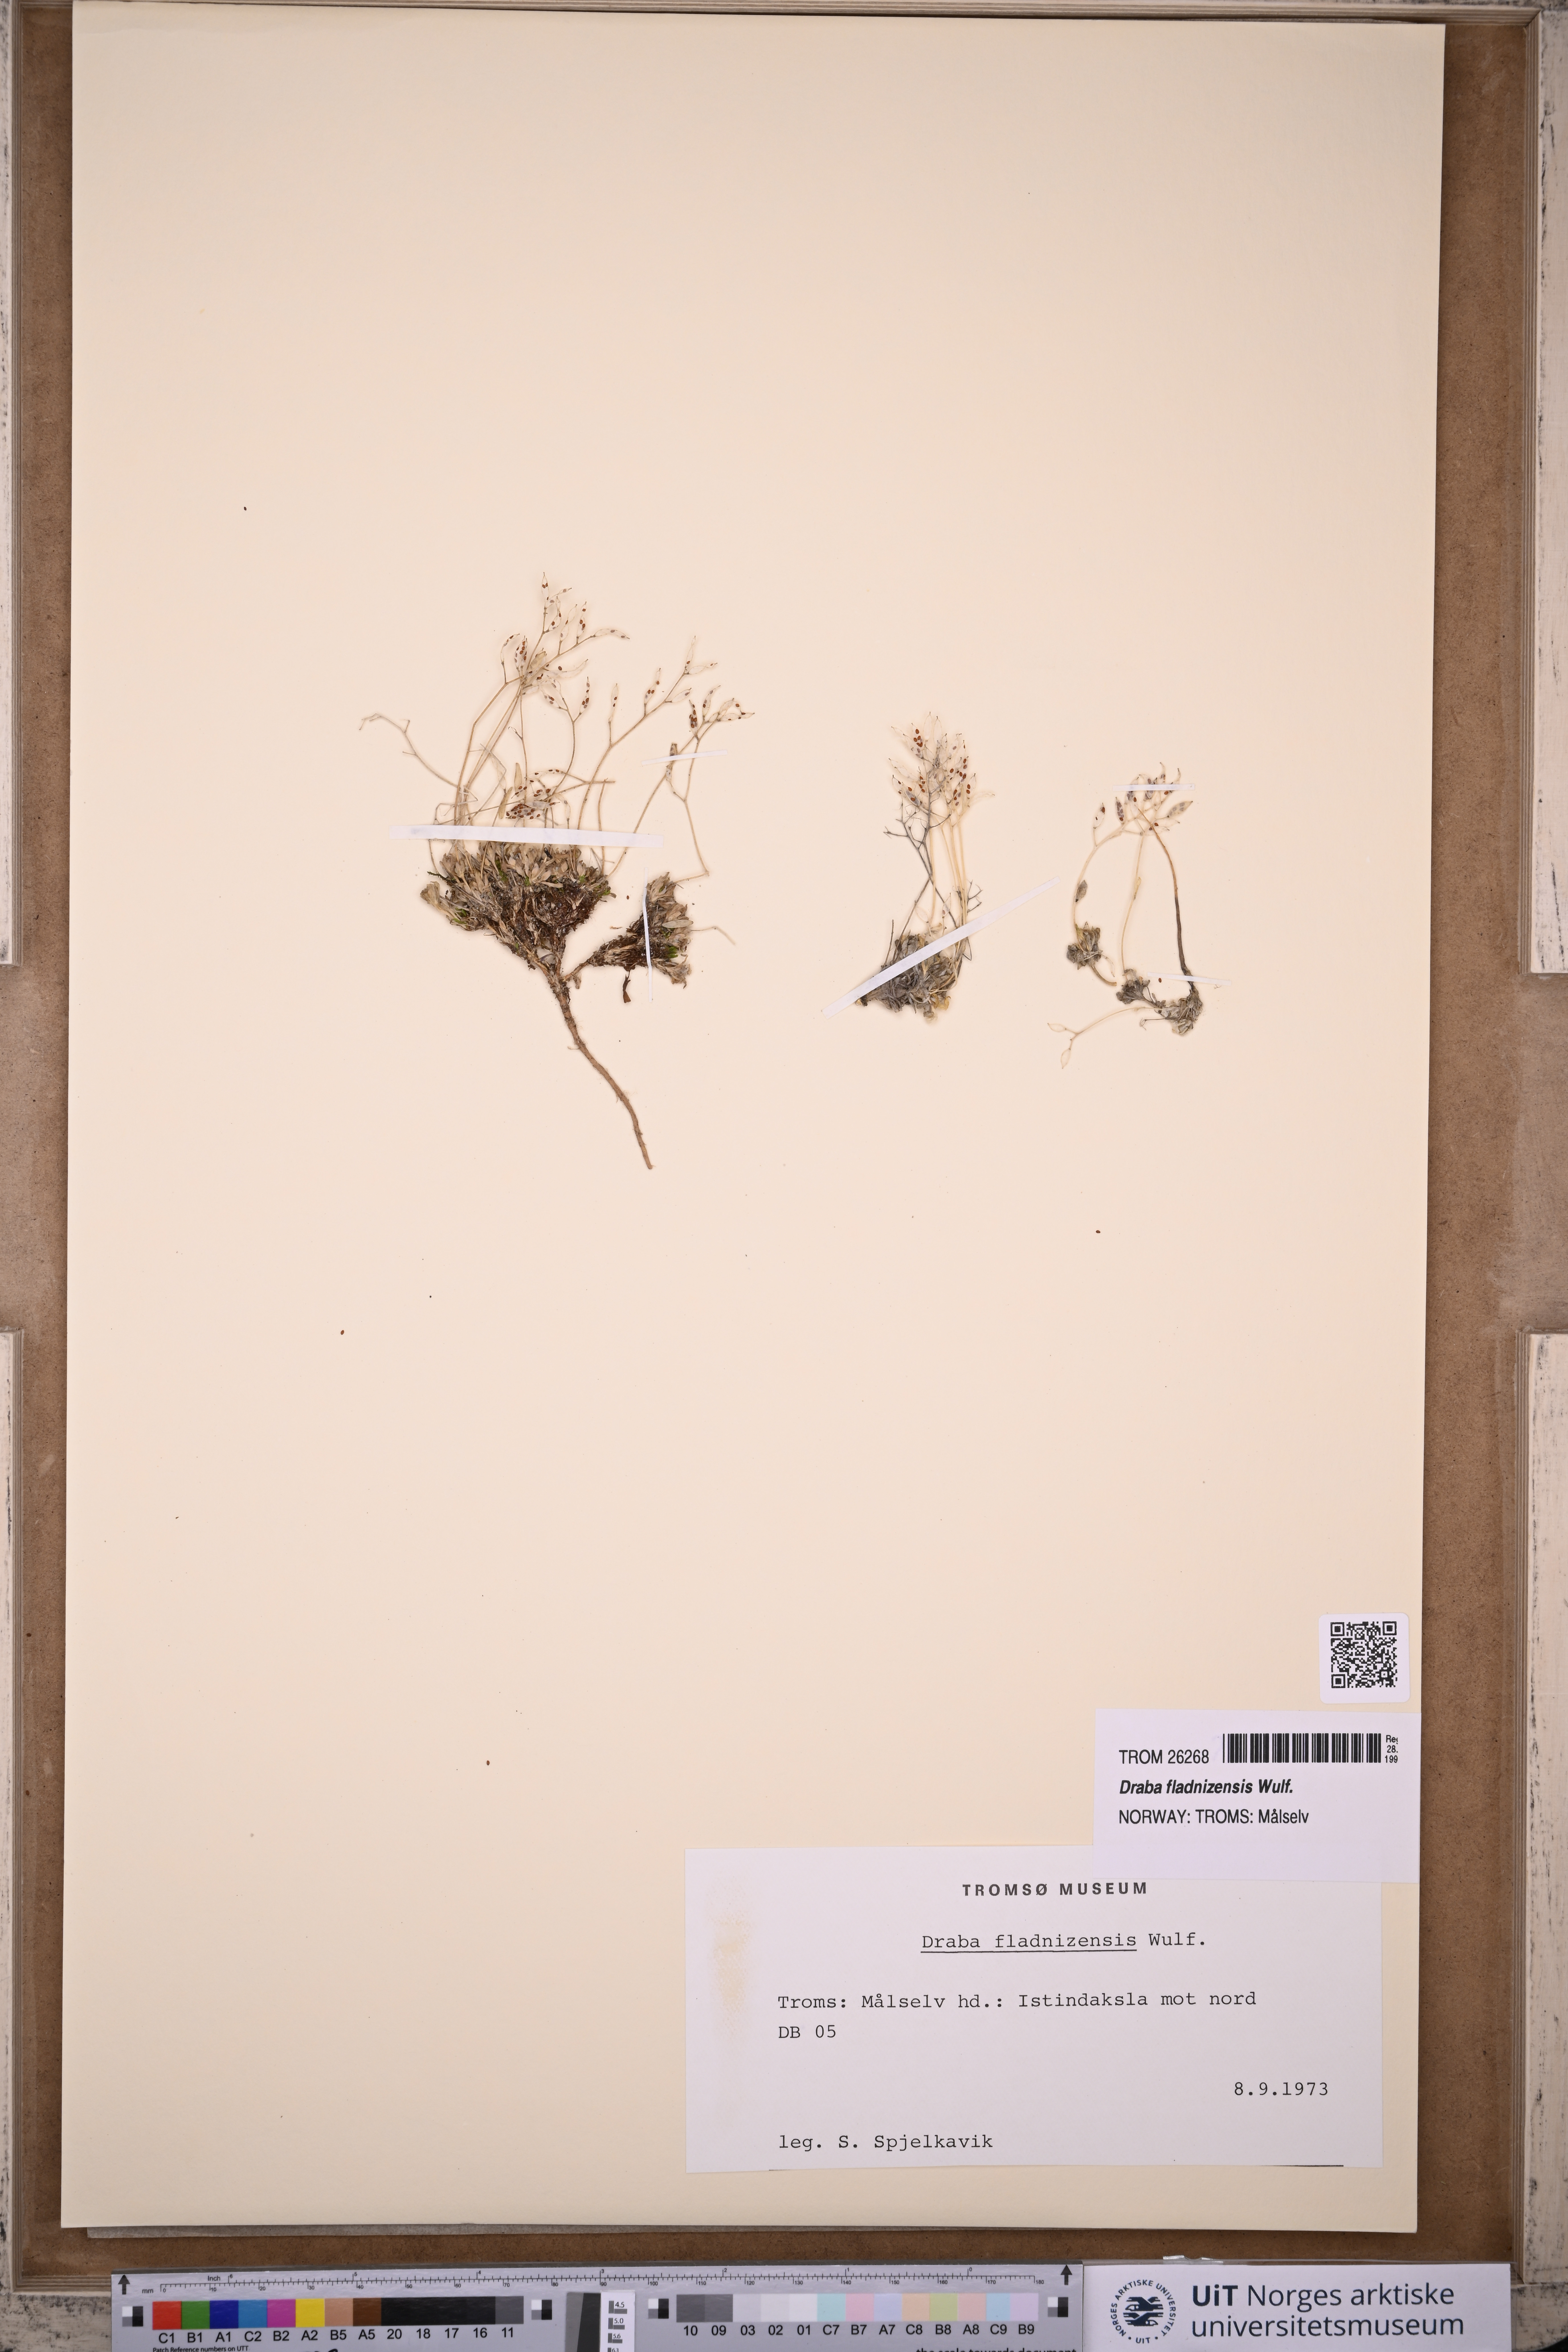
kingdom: Plantae
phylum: Tracheophyta
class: Magnoliopsida
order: Brassicales
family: Brassicaceae
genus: Draba
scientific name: Draba fladnizensis
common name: Austrian draba
